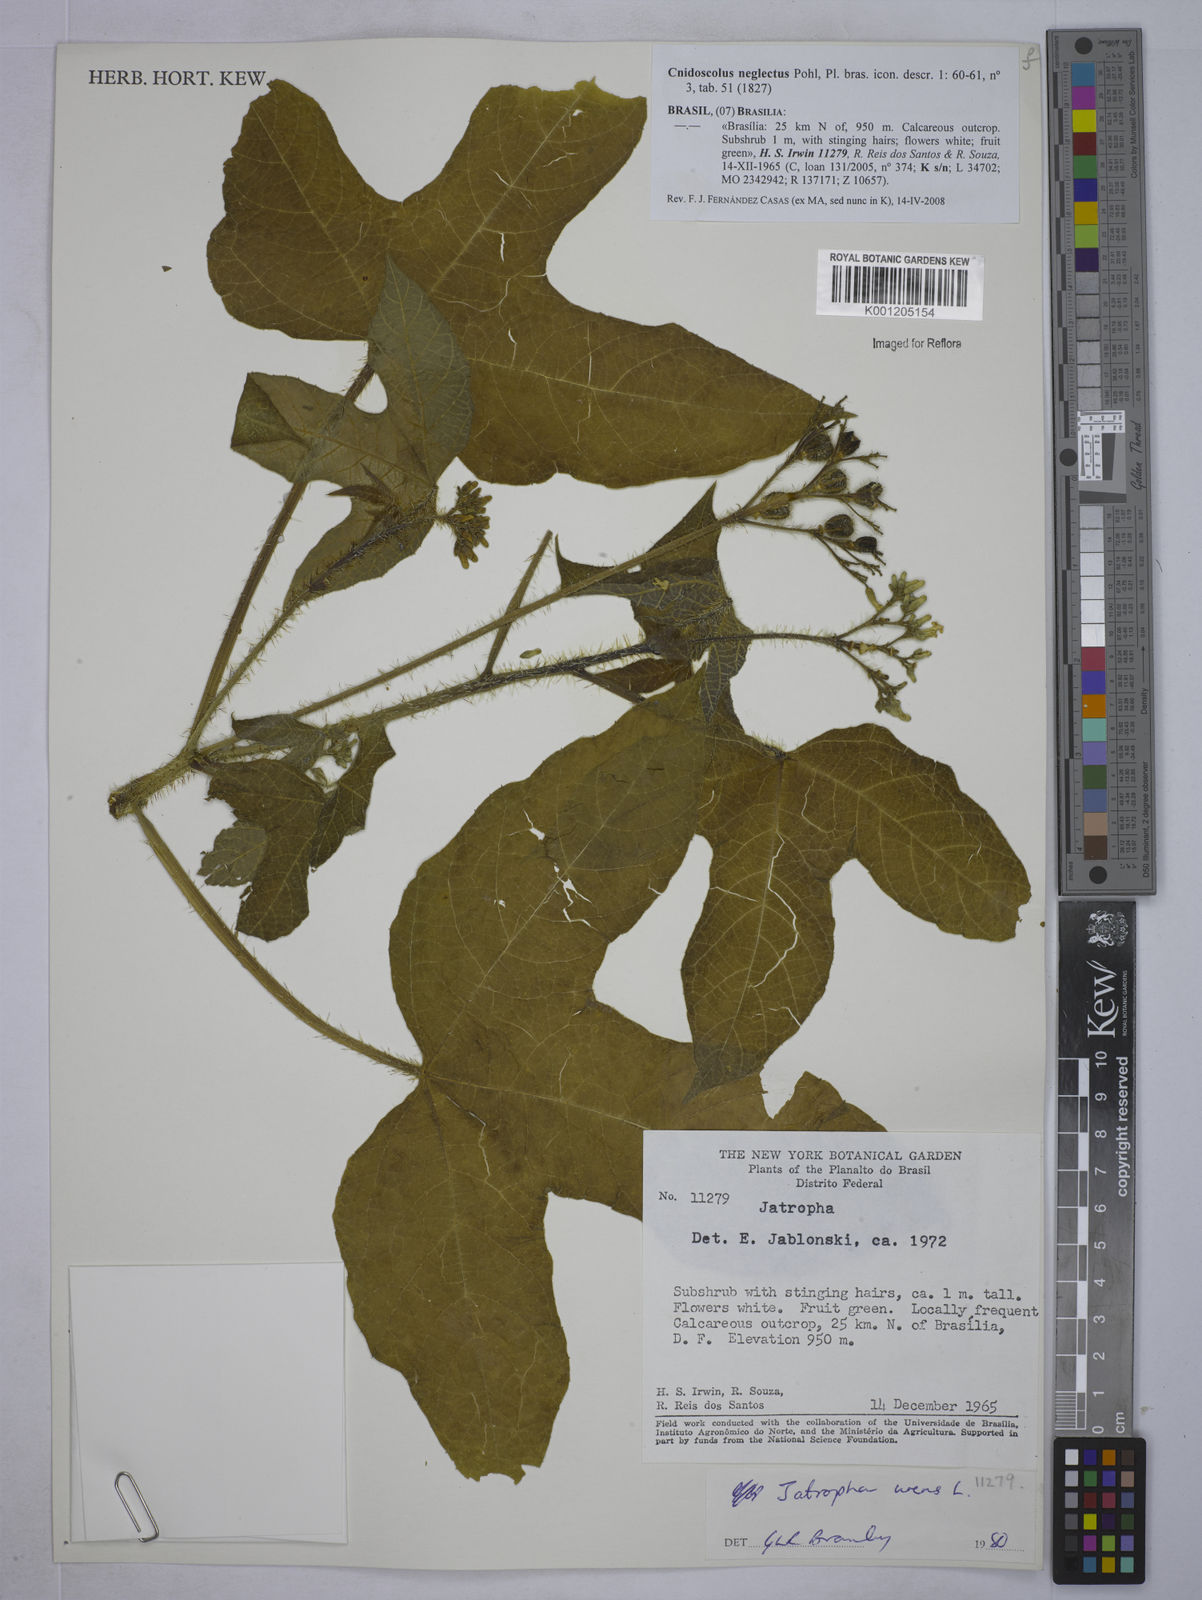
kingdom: Plantae
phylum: Tracheophyta
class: Magnoliopsida
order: Malpighiales
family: Euphorbiaceae
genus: Cnidoscolus
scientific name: Cnidoscolus neglectus
